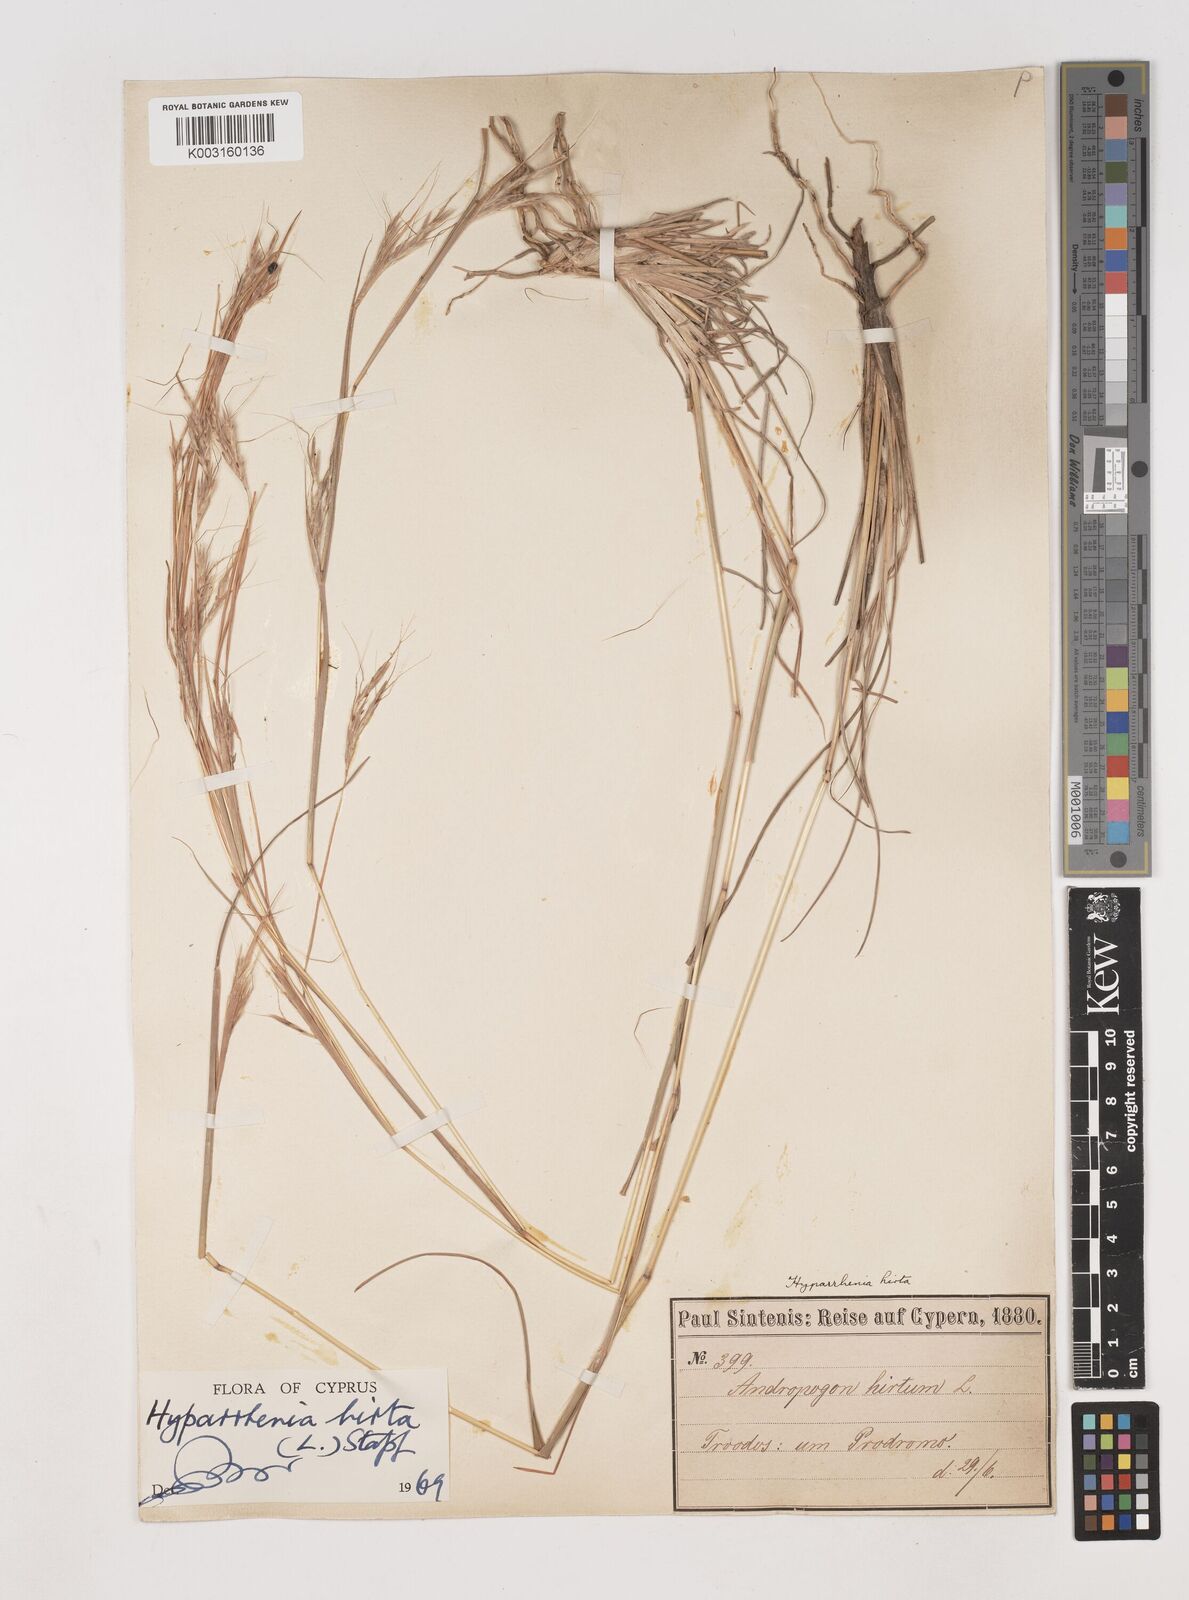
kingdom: Plantae
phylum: Tracheophyta
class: Liliopsida
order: Poales
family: Poaceae
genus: Hyparrhenia
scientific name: Hyparrhenia hirta
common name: Thatching grass
